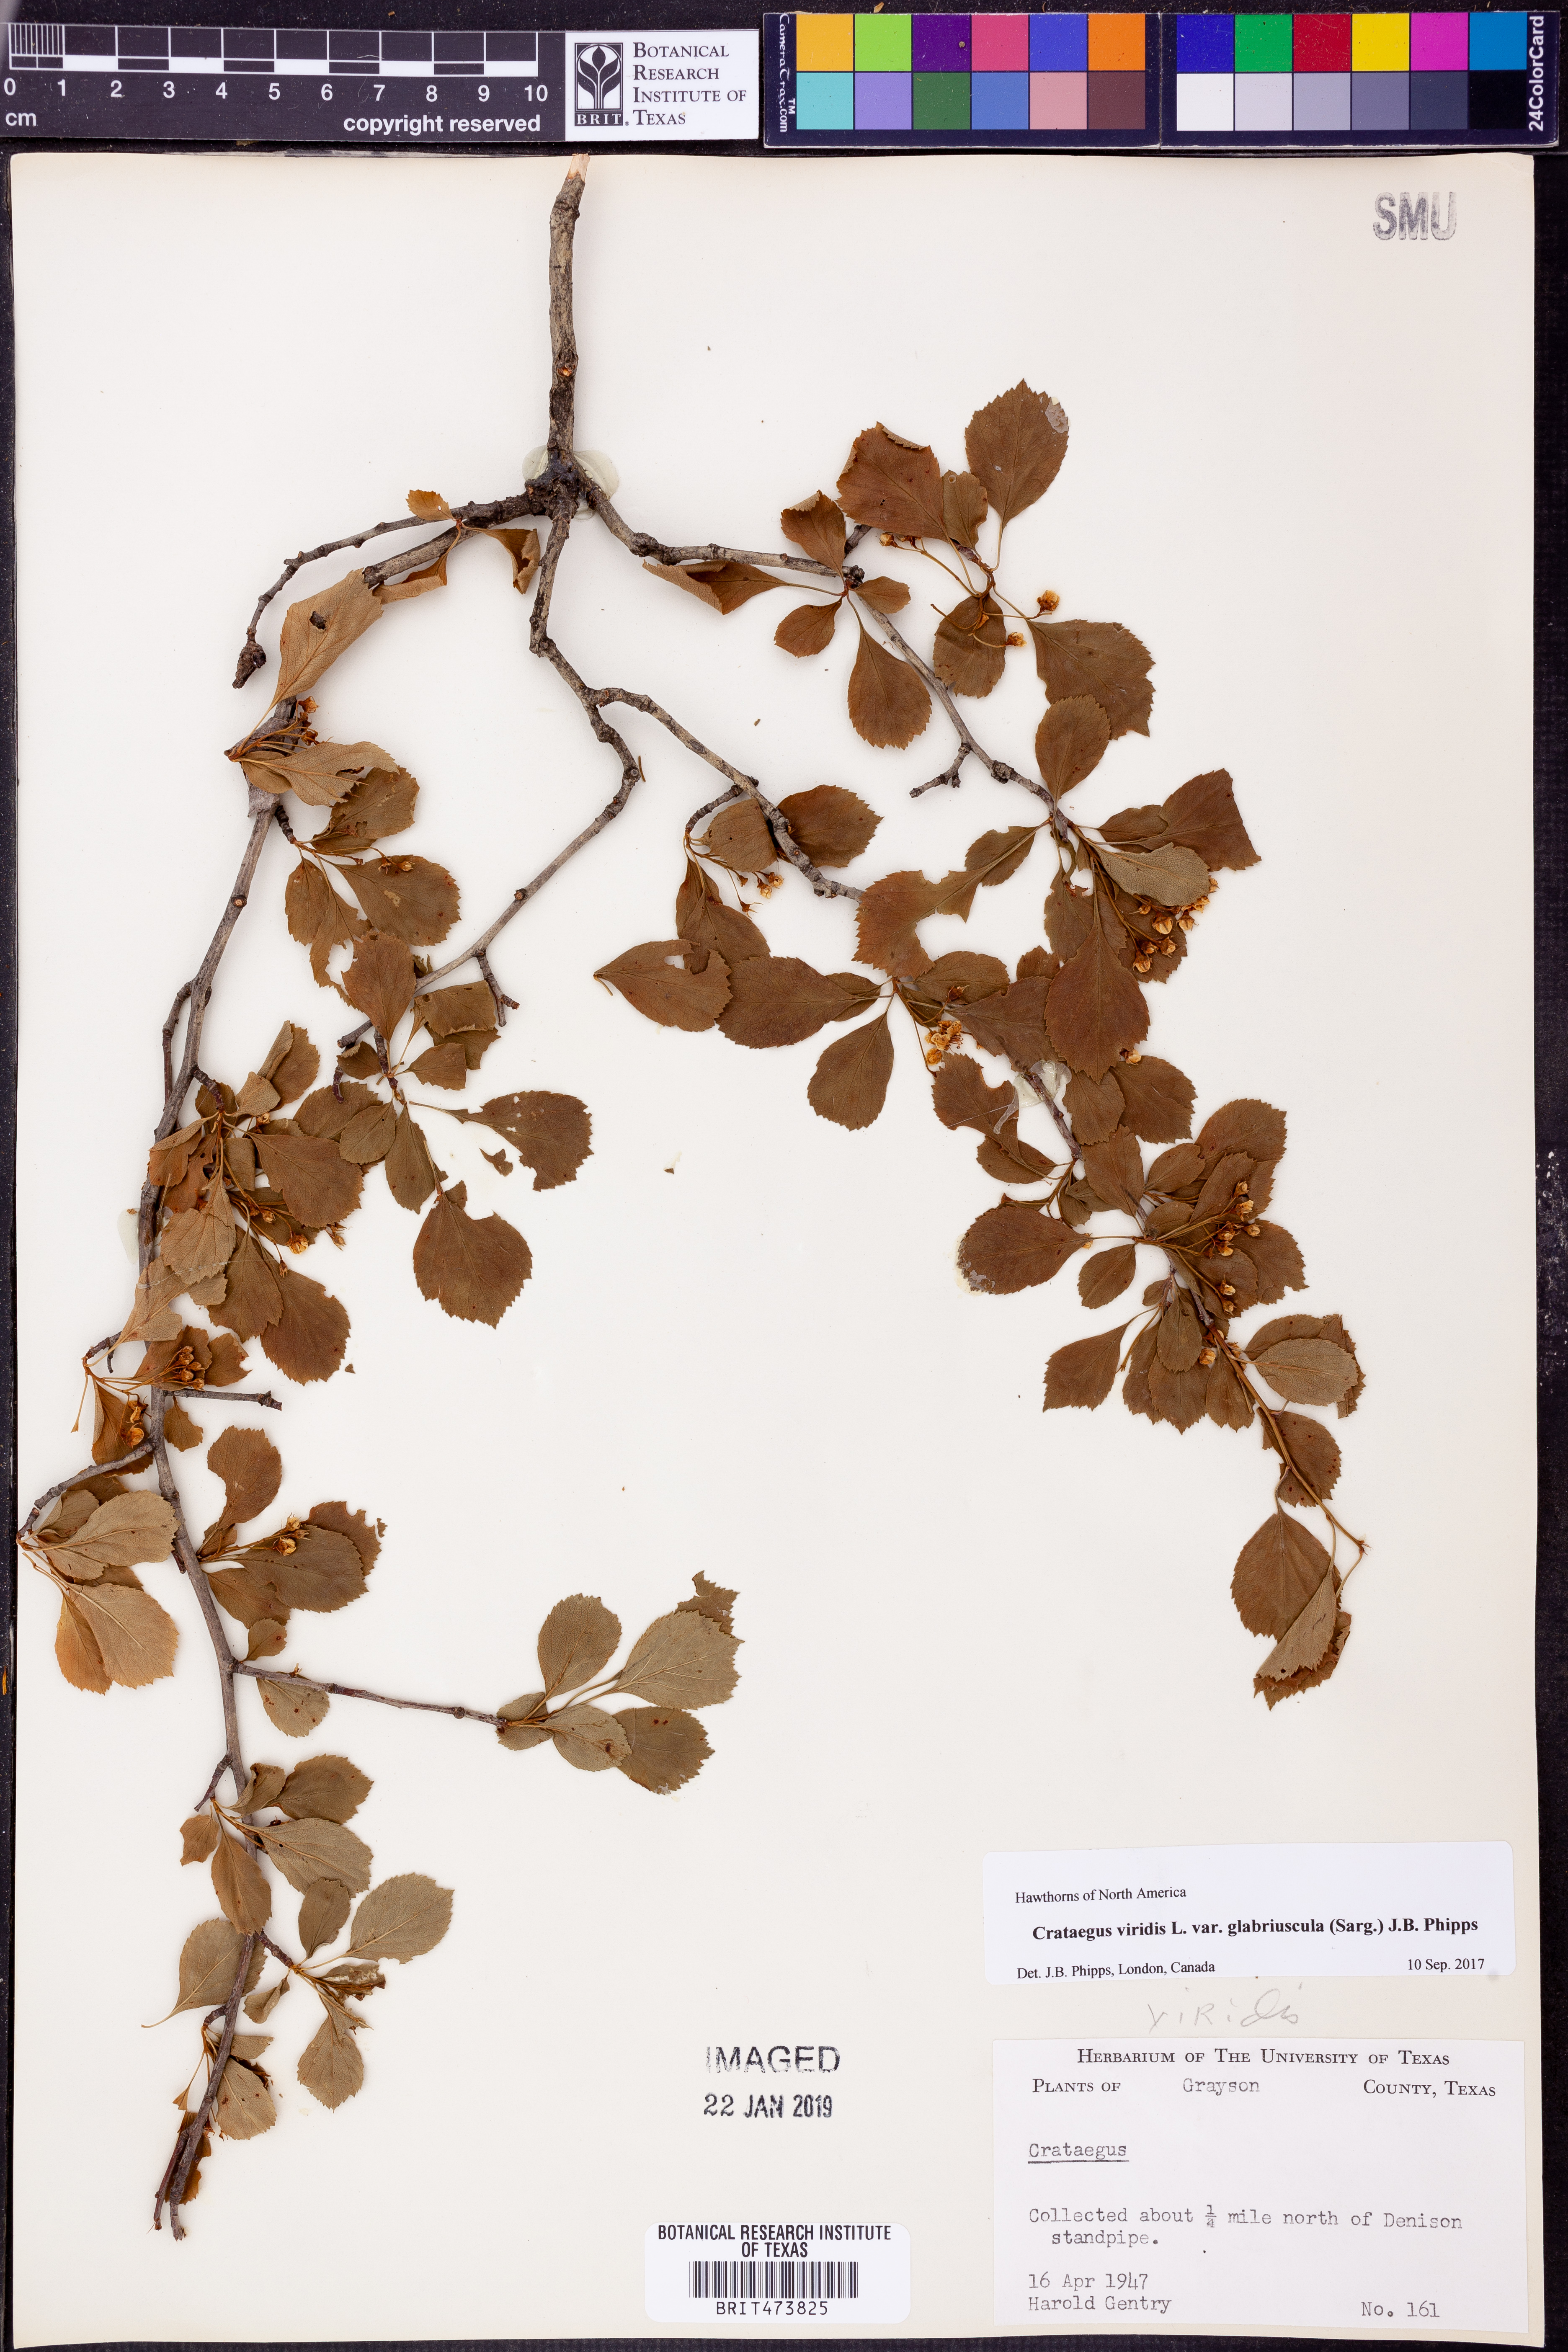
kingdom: Plantae
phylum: Tracheophyta
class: Magnoliopsida
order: Rosales
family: Rosaceae
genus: Crataegus
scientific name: Crataegus viridis
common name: Southernthorn
